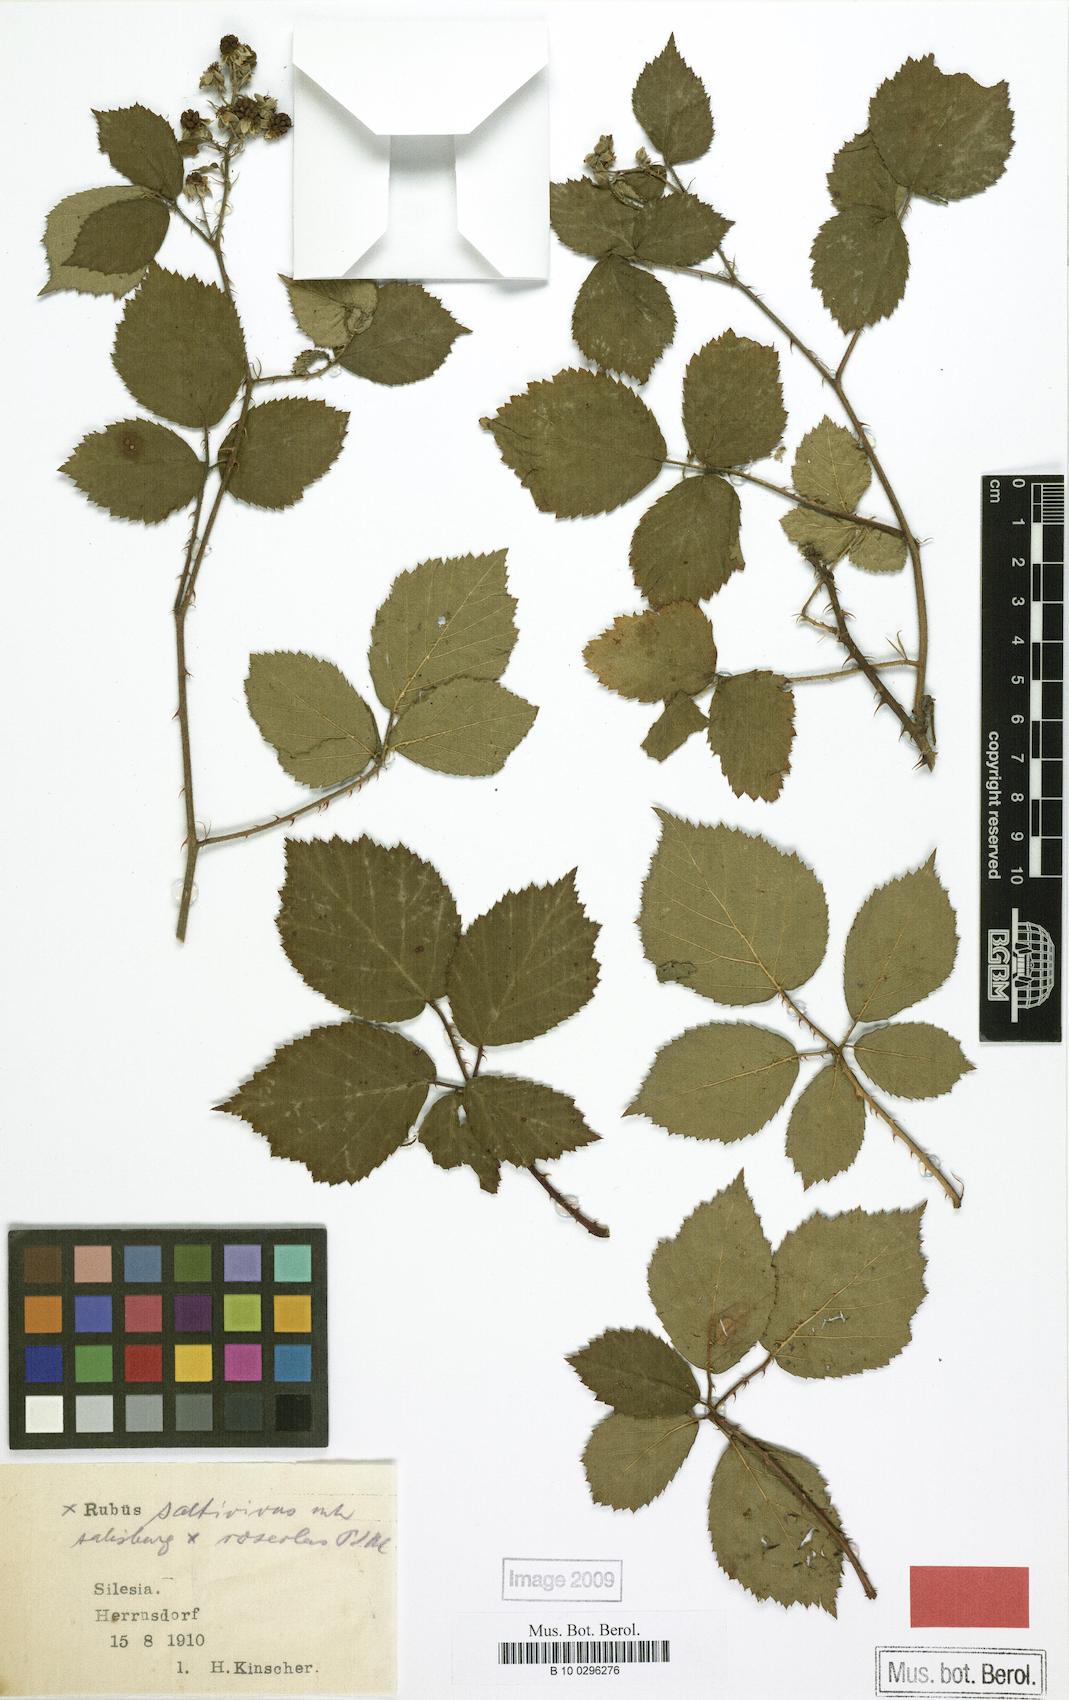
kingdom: Plantae
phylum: Tracheophyta
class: Magnoliopsida
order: Rosales
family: Rosaceae
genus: Rubus
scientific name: Rubus saltivivus
